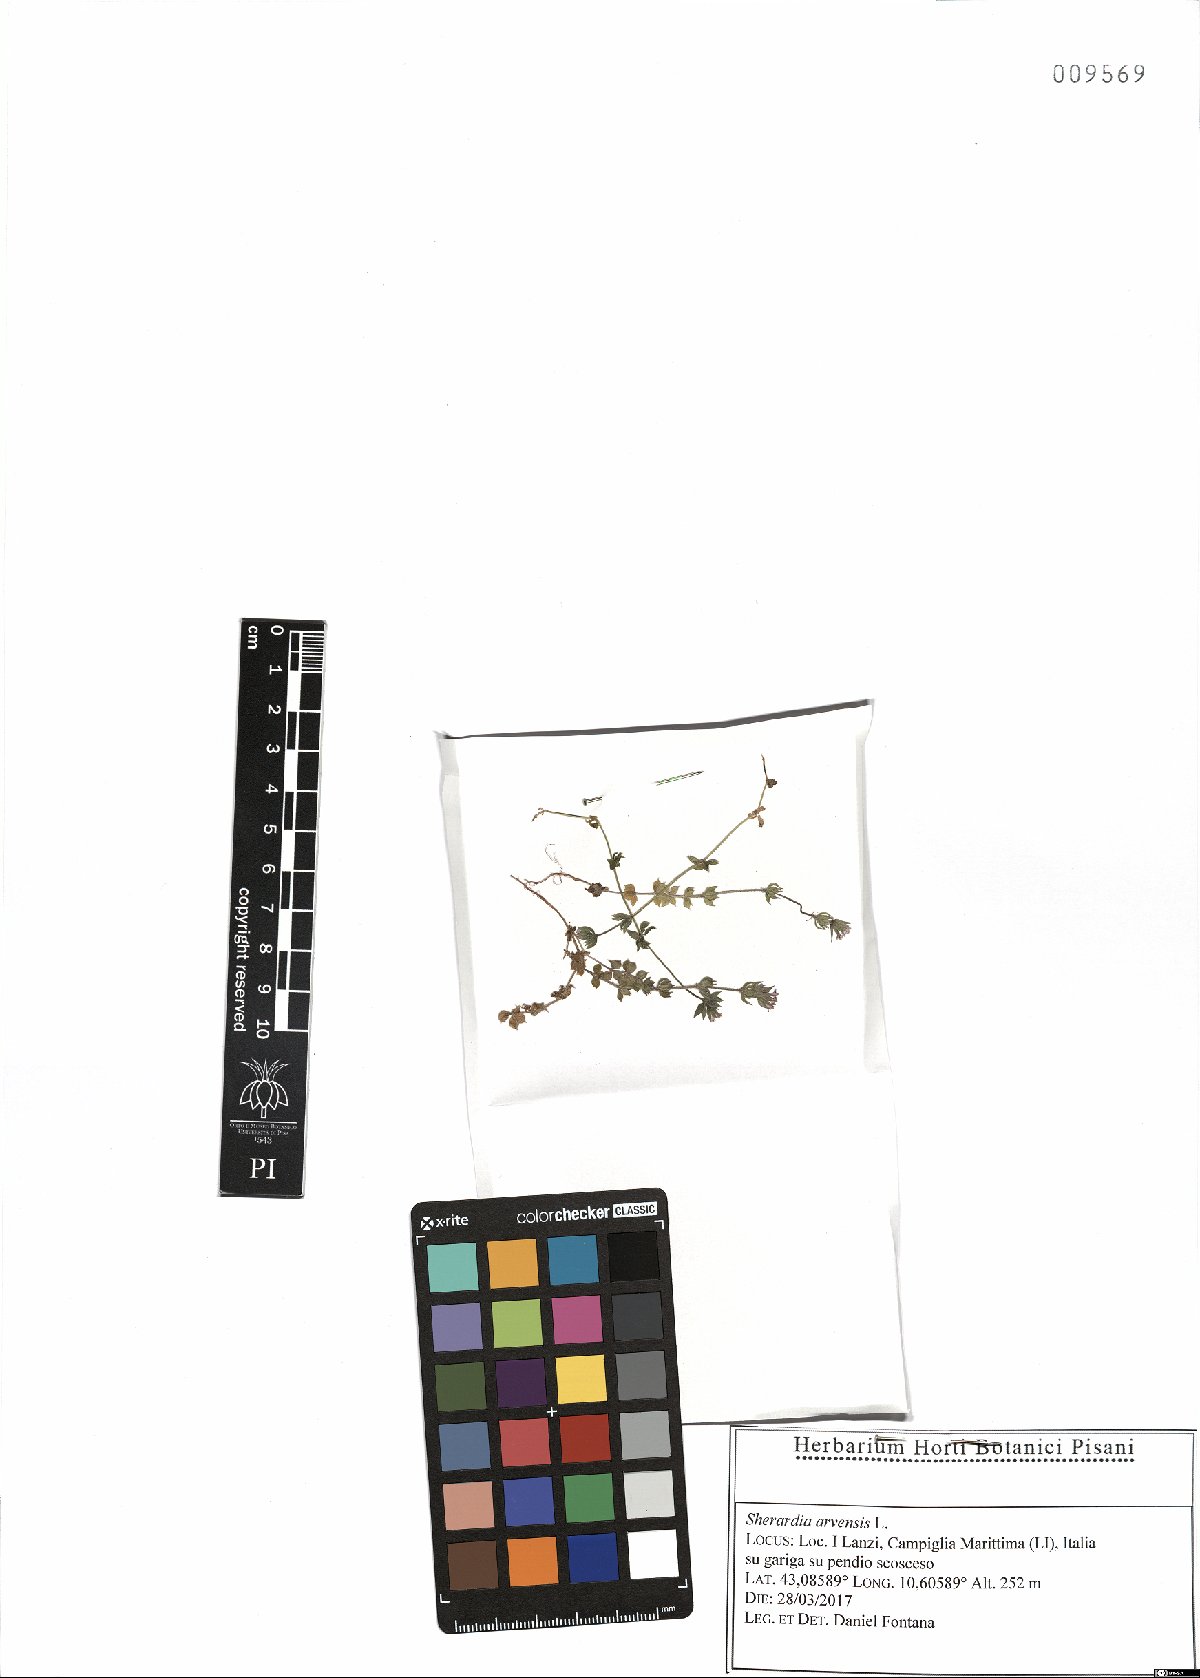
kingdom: Plantae
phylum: Tracheophyta
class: Magnoliopsida
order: Gentianales
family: Rubiaceae
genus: Sherardia
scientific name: Sherardia arvensis
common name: Field madder
